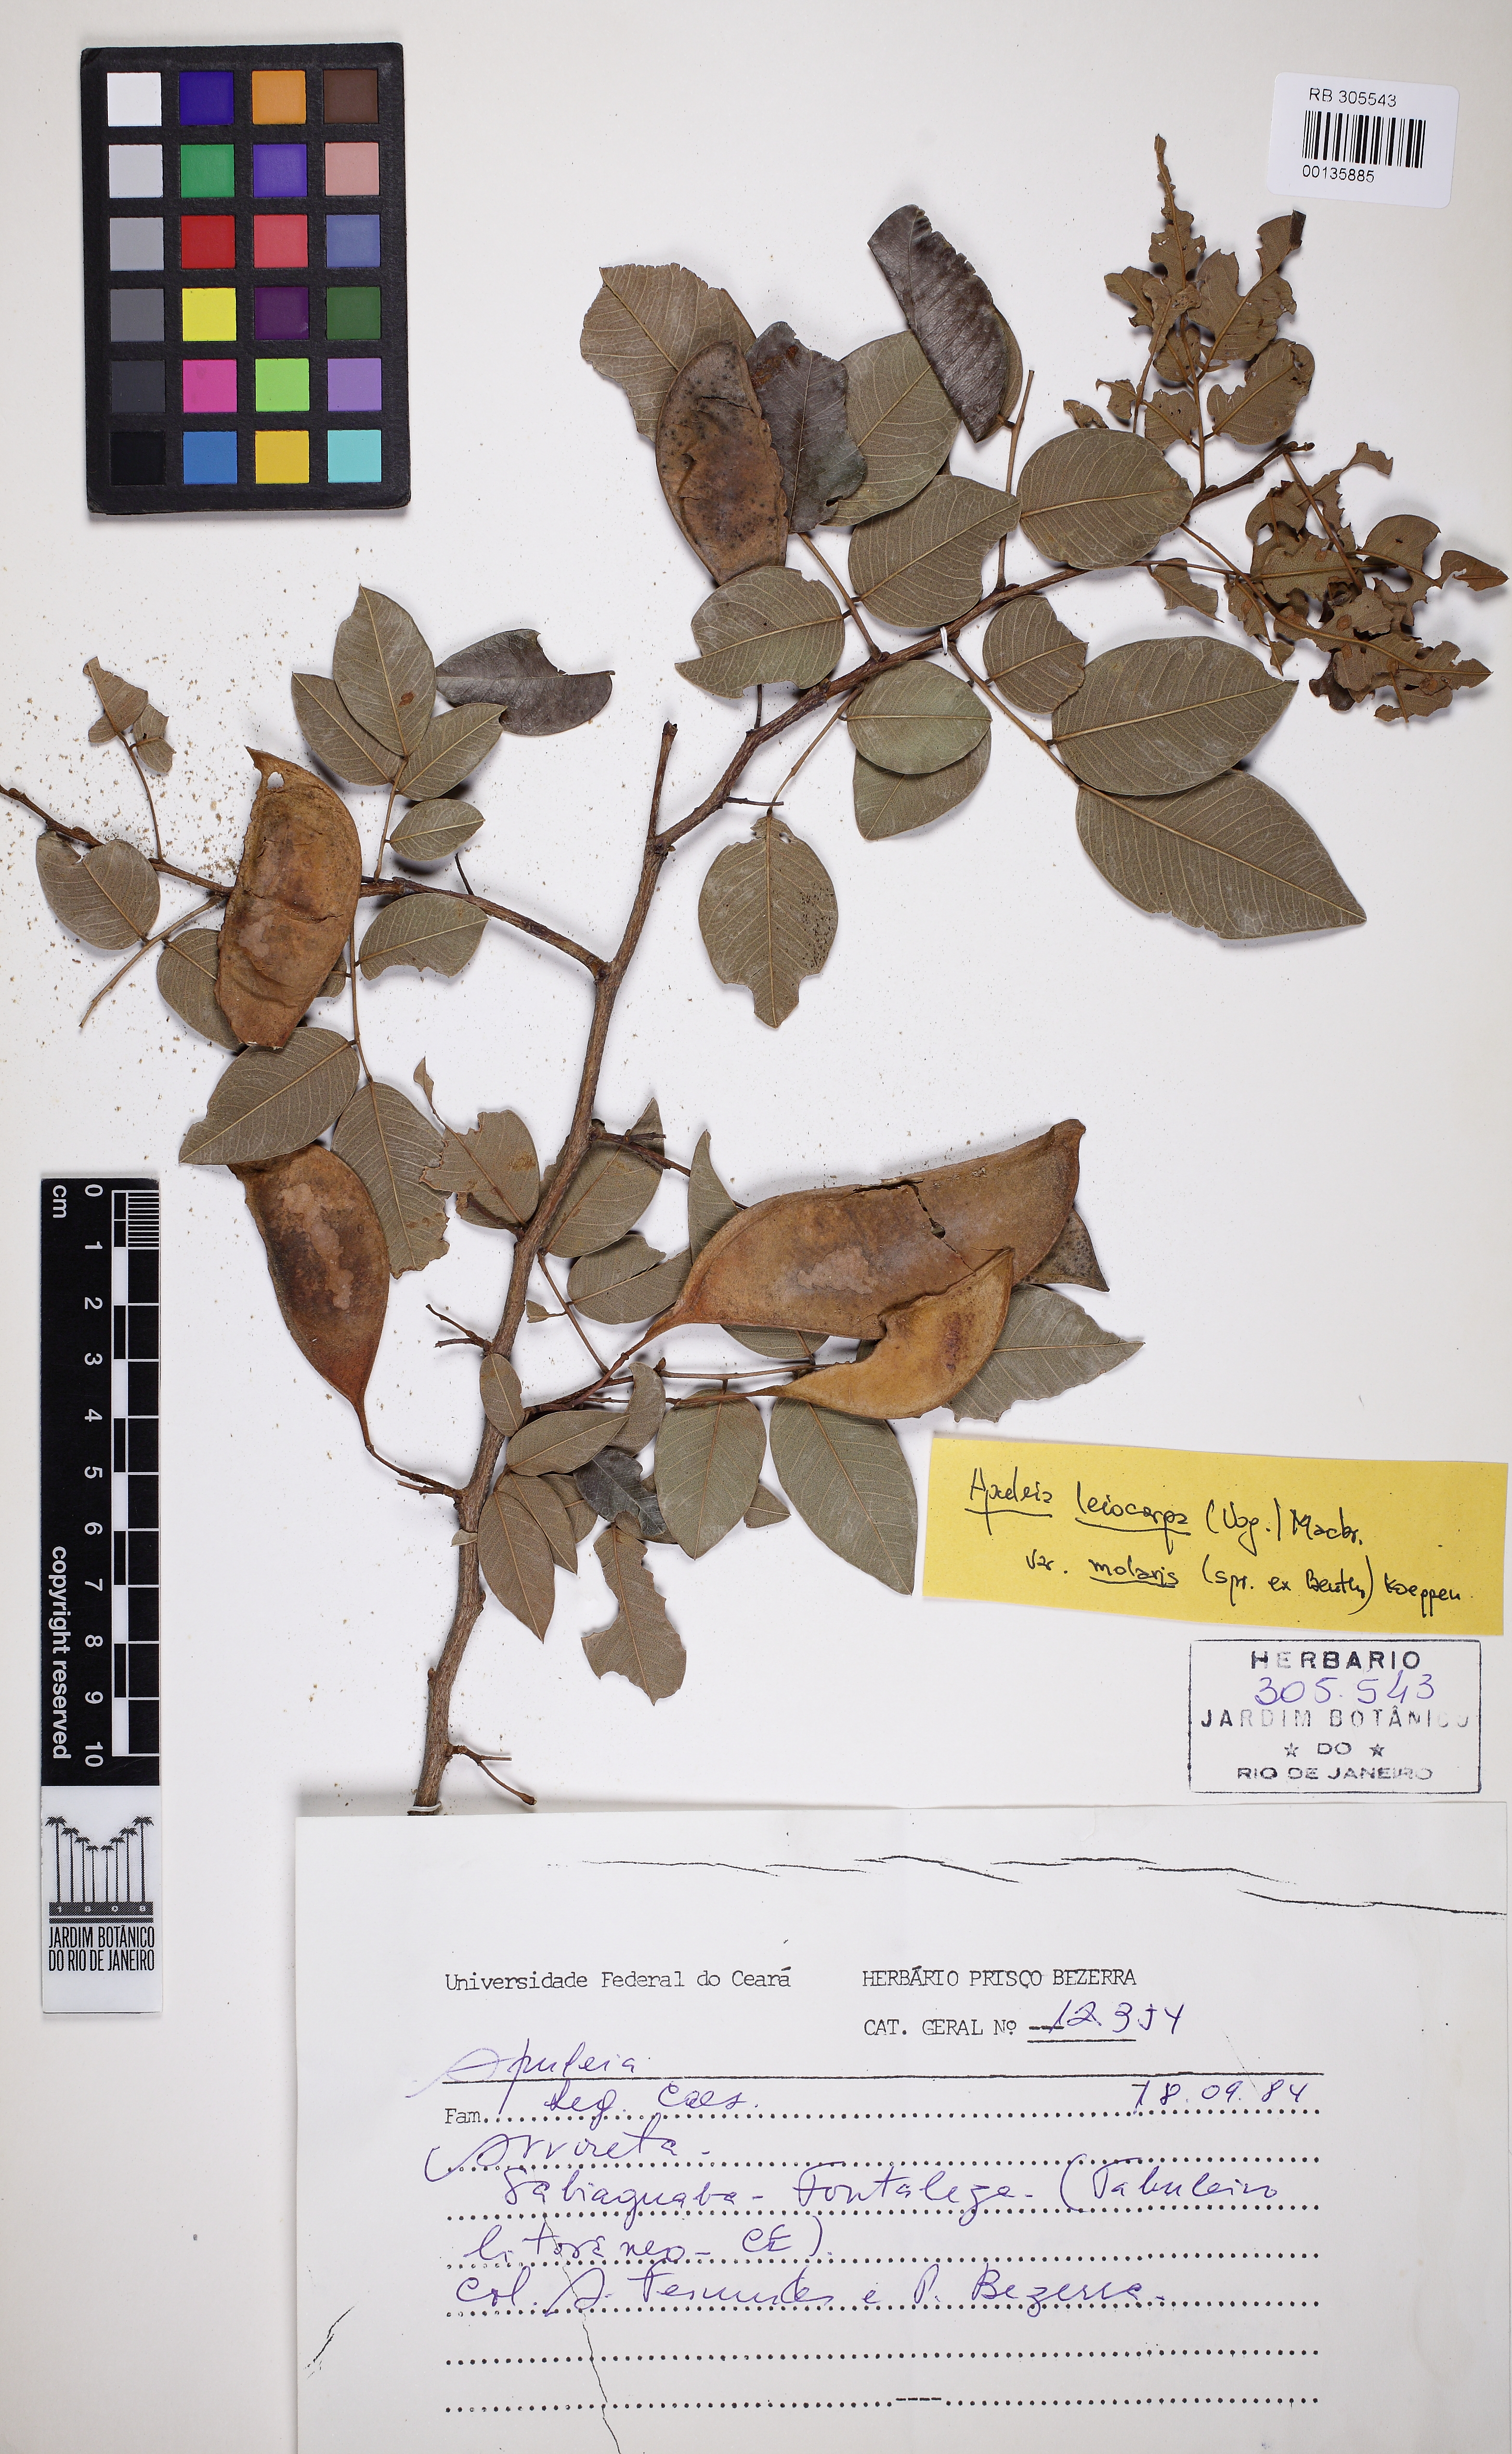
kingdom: Plantae
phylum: Tracheophyta
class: Magnoliopsida
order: Fabales
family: Fabaceae
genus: Apuleia
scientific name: Apuleia leiocarpa
